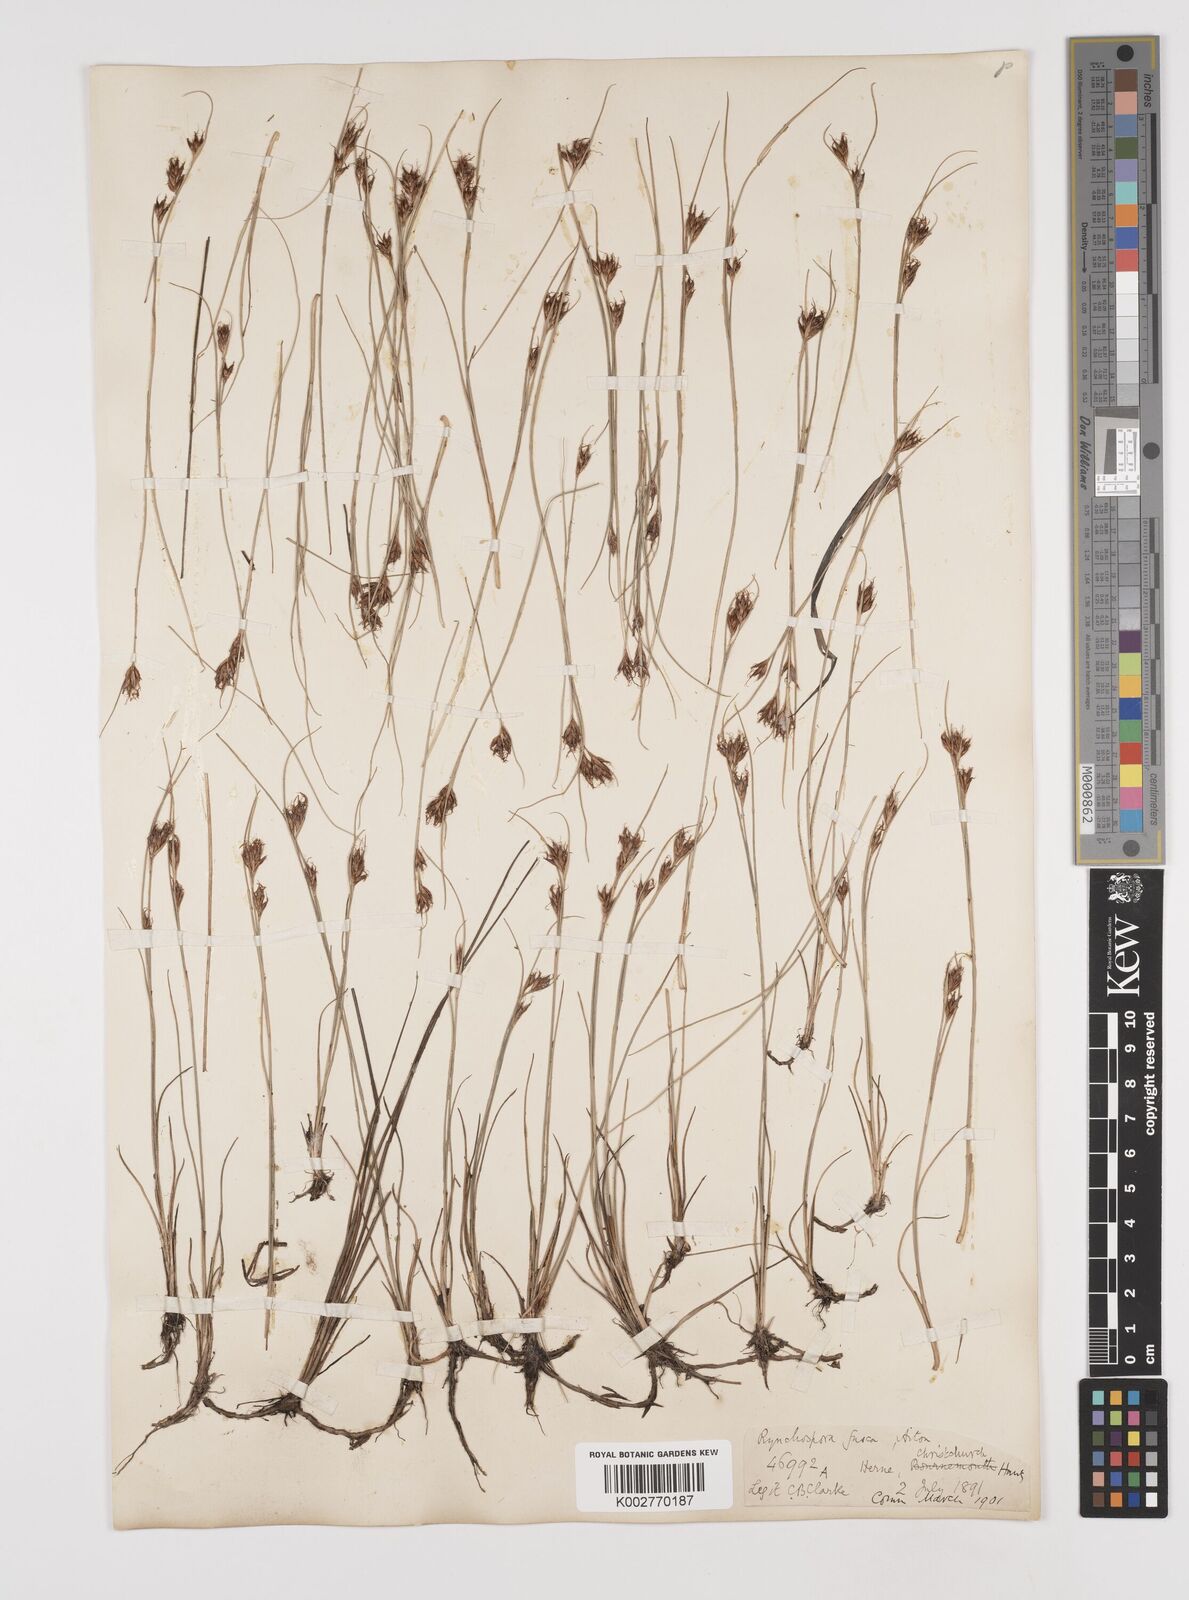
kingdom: Plantae
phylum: Tracheophyta
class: Liliopsida
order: Poales
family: Cyperaceae
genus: Rhynchospora
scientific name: Rhynchospora fusca
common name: Brown beak-sedge
